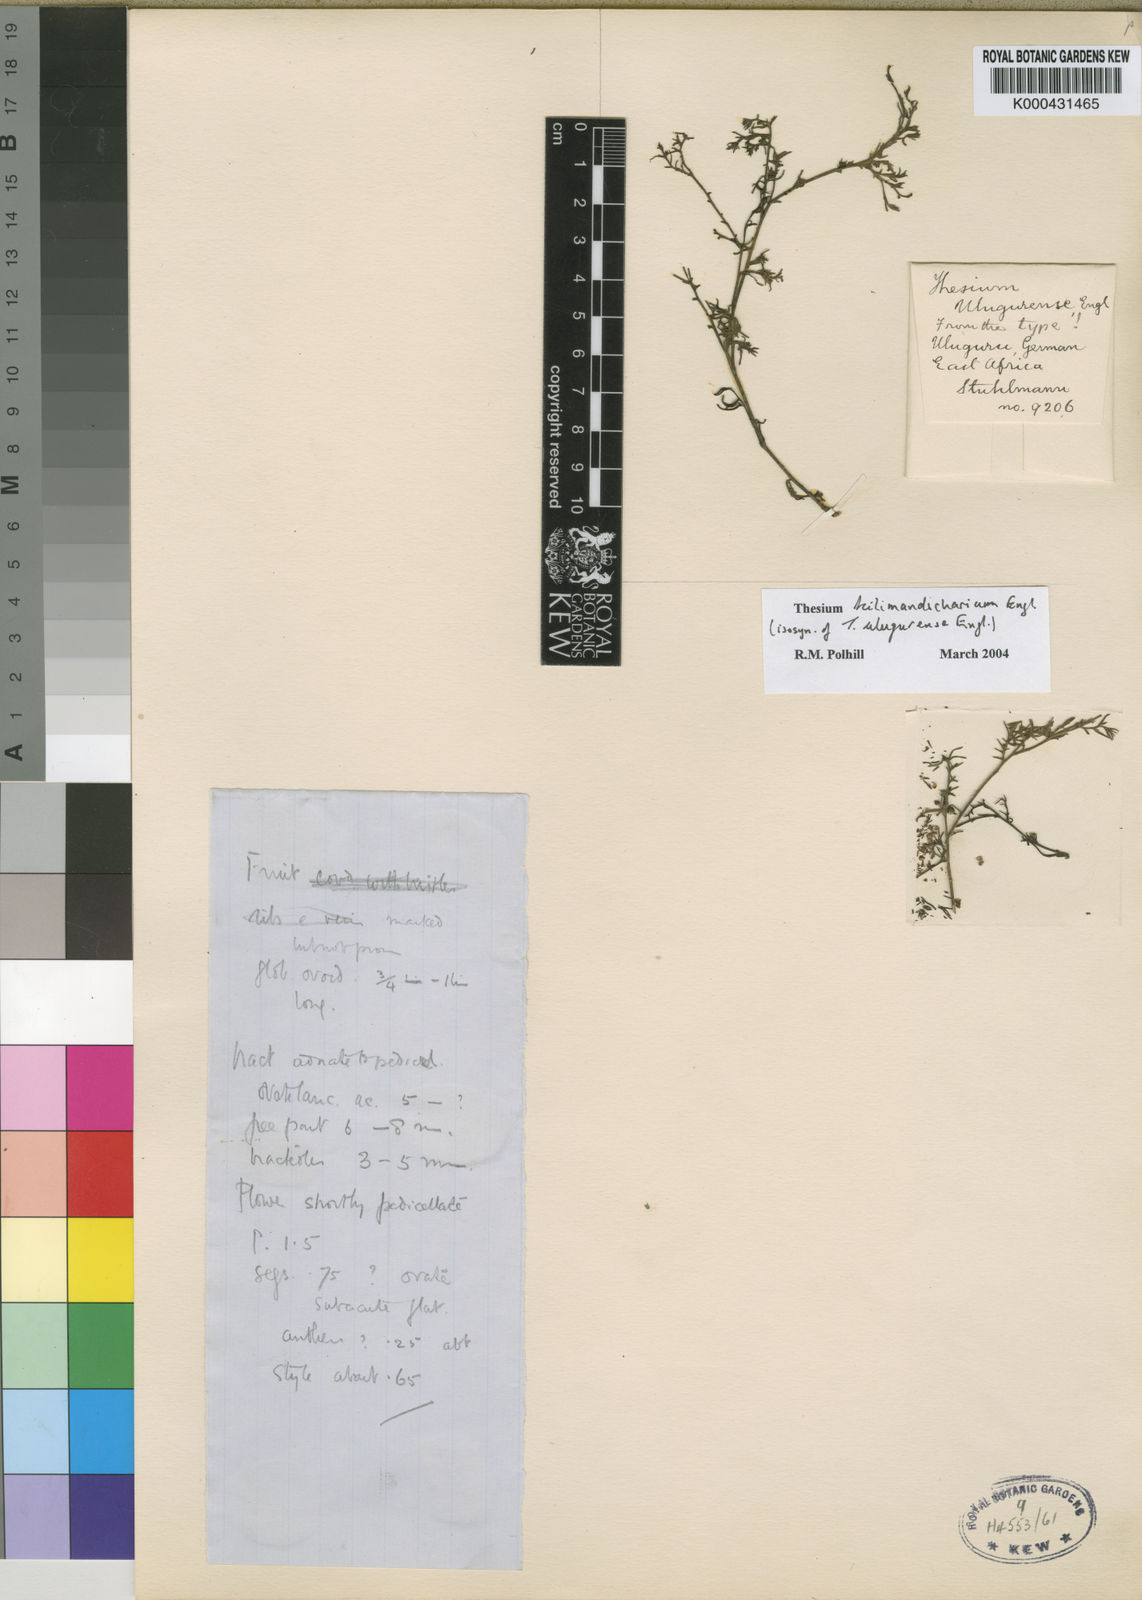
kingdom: Plantae
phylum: Tracheophyta
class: Magnoliopsida
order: Santalales
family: Thesiaceae
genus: Thesium
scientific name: Thesium kilimandscharicum
